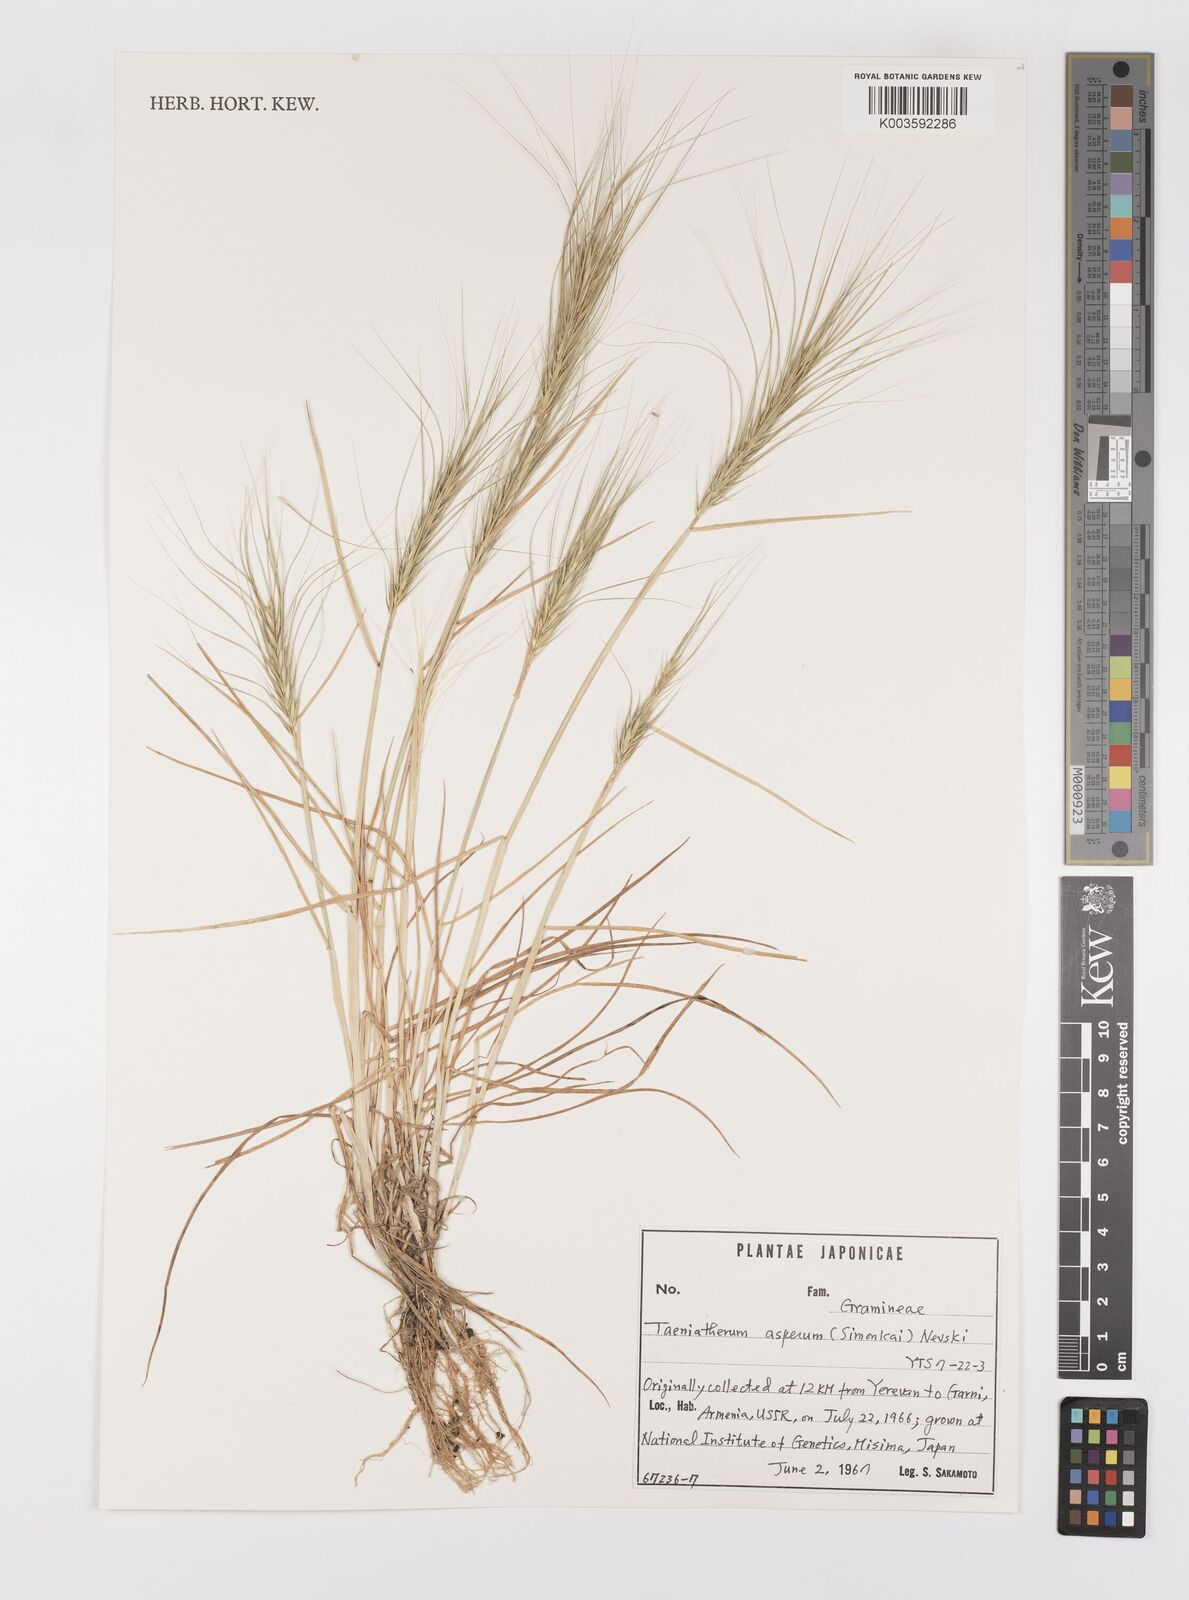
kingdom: Plantae
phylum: Tracheophyta
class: Liliopsida
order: Poales
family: Poaceae
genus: Taeniatherum
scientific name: Taeniatherum caput-medusae
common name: Medusahead
